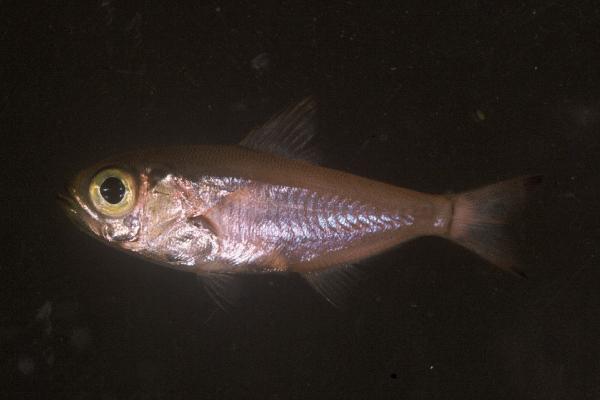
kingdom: Animalia
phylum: Chordata
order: Perciformes
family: Pempheridae
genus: Parapriacanthus
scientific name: Parapriacanthus ransonneti
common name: Pigmy sweeper
